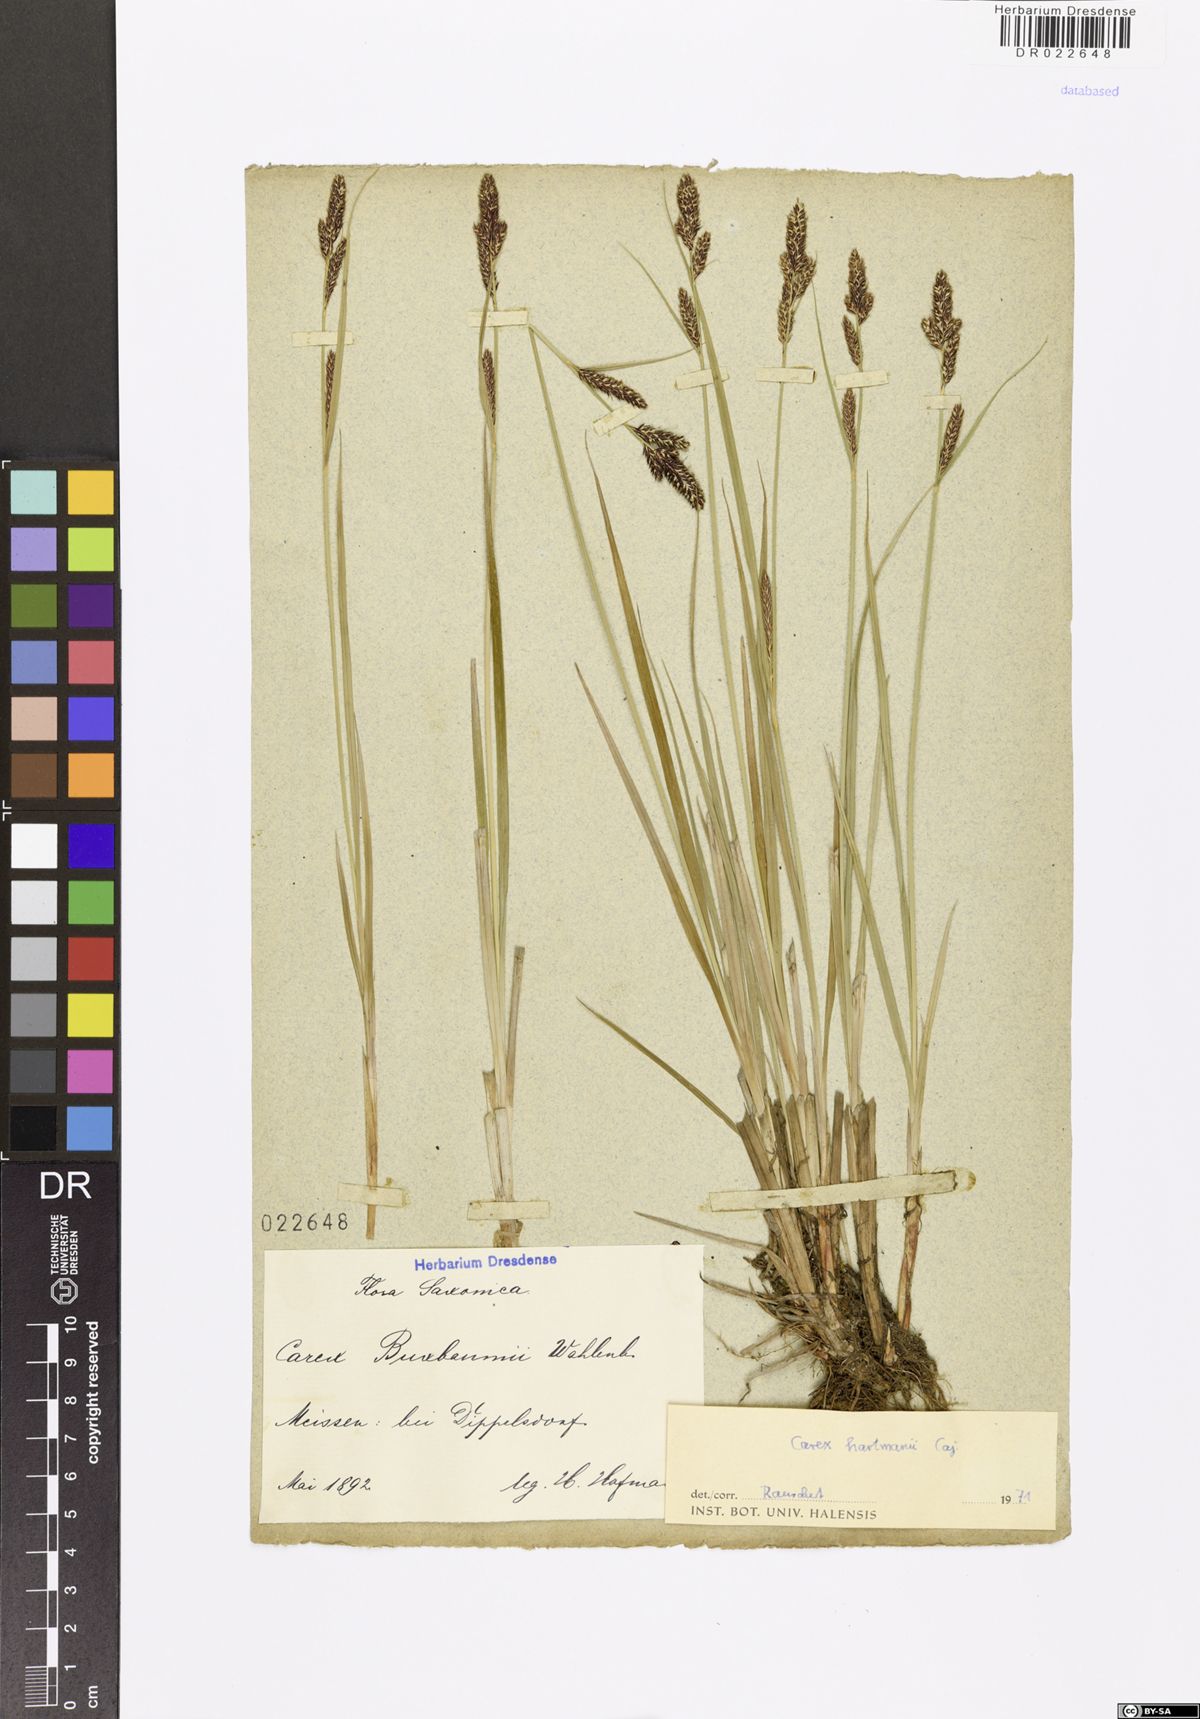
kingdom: Plantae
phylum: Tracheophyta
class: Liliopsida
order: Poales
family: Cyperaceae
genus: Carex
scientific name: Carex hartmaniorum
